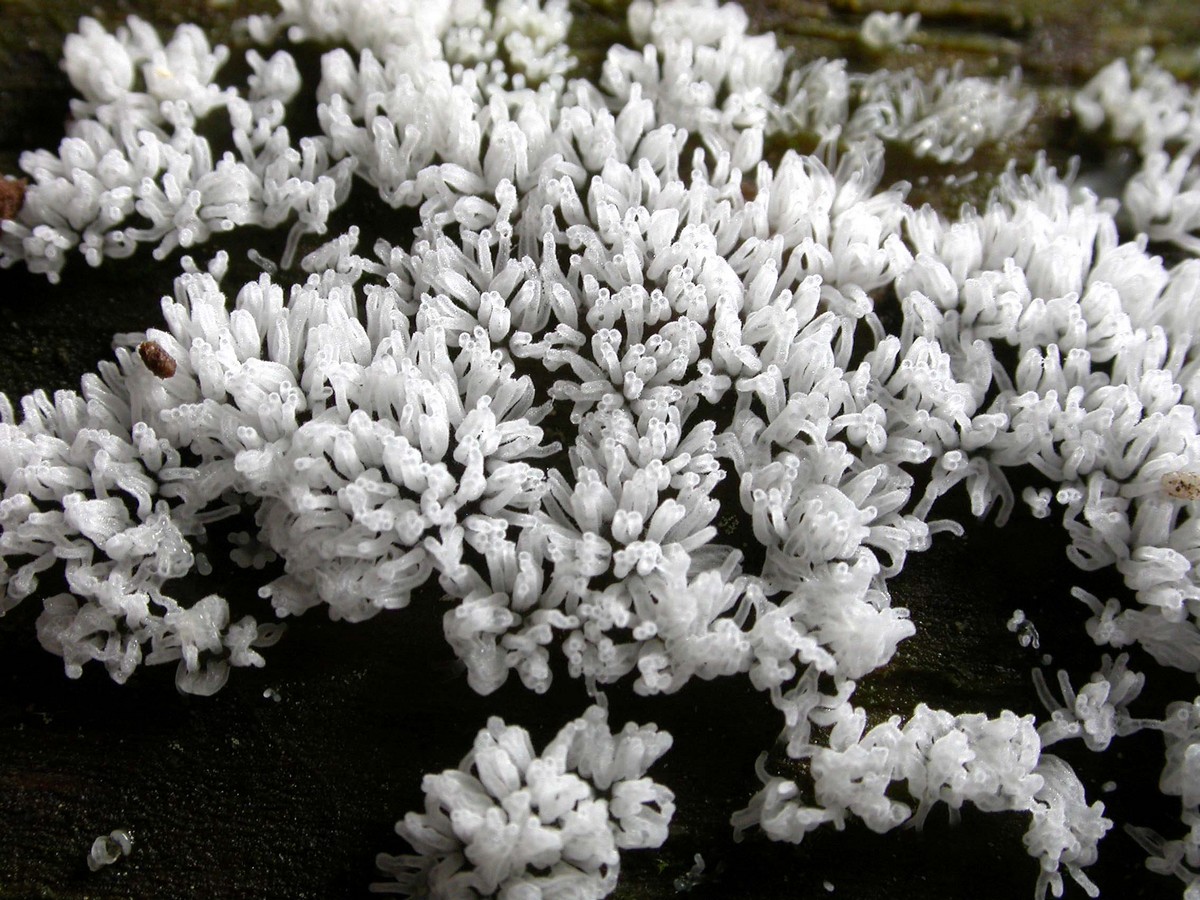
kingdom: Protozoa
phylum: Mycetozoa
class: Protosteliomycetes
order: Ceratiomyxales
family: Ceratiomyxaceae
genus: Ceratiomyxa
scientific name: Ceratiomyxa fruticulosa
